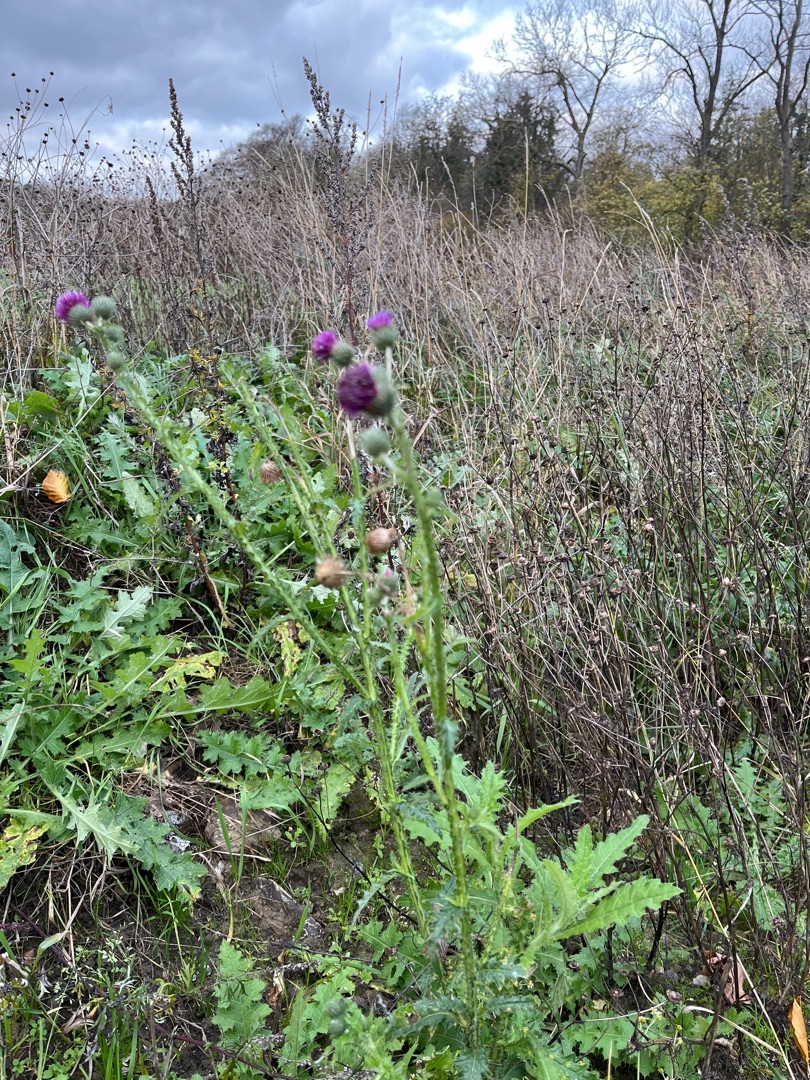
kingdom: Plantae
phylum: Tracheophyta
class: Magnoliopsida
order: Asterales
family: Asteraceae
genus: Carduus
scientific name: Carduus crispus
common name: Kruset tidsel
